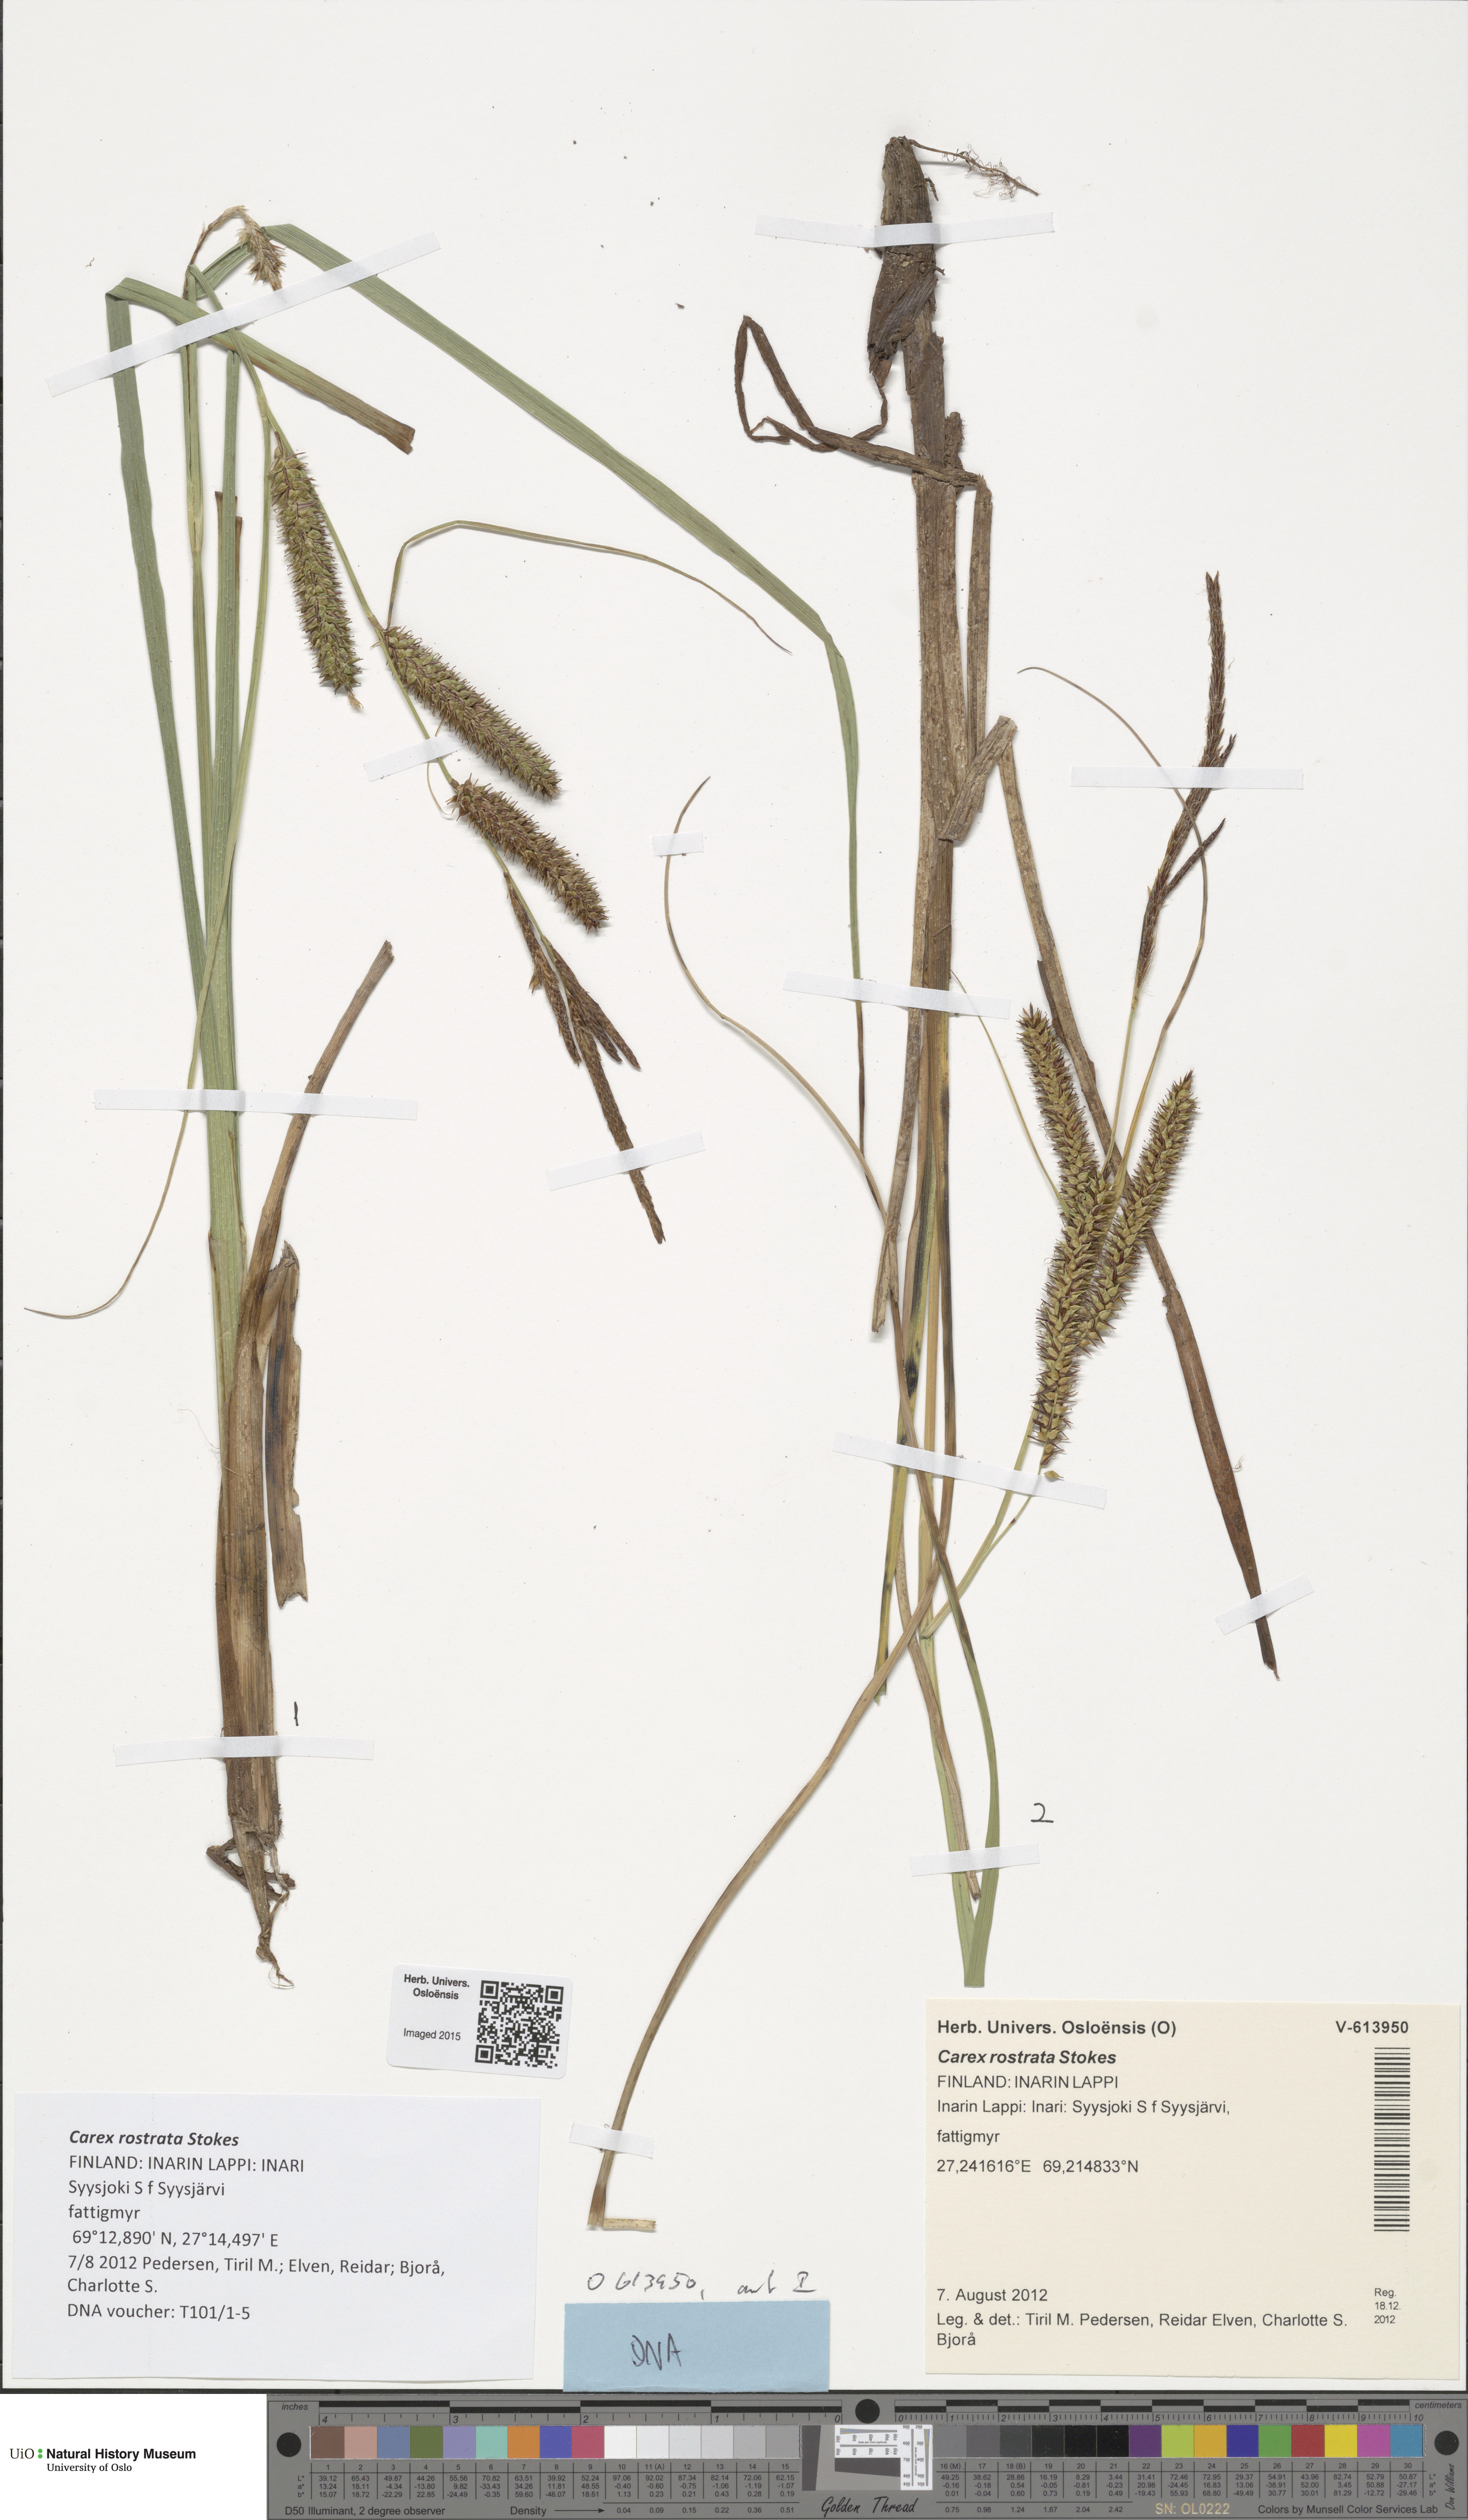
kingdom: Plantae
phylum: Tracheophyta
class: Liliopsida
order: Poales
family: Cyperaceae
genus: Carex
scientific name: Carex rostrata
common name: Bottle sedge
